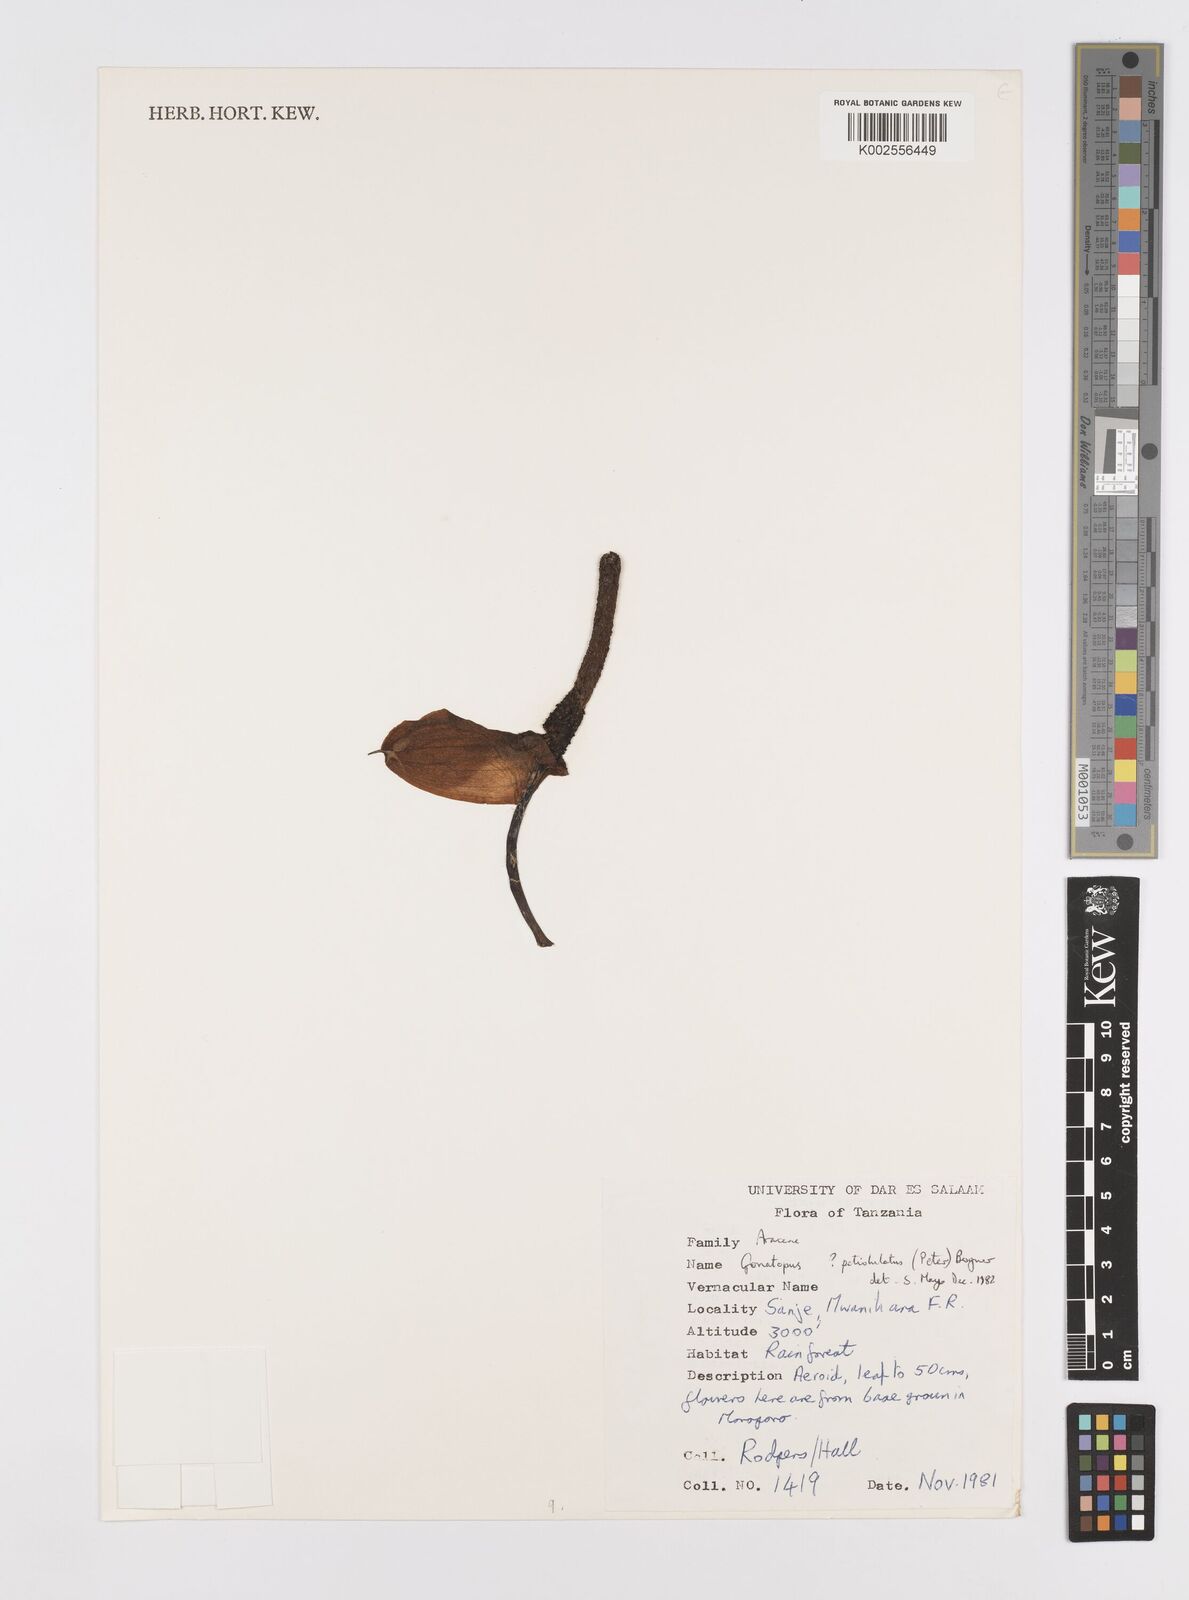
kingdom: Plantae
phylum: Tracheophyta
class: Liliopsida
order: Alismatales
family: Araceae
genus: Gonatopus
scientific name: Gonatopus petiolulatus
